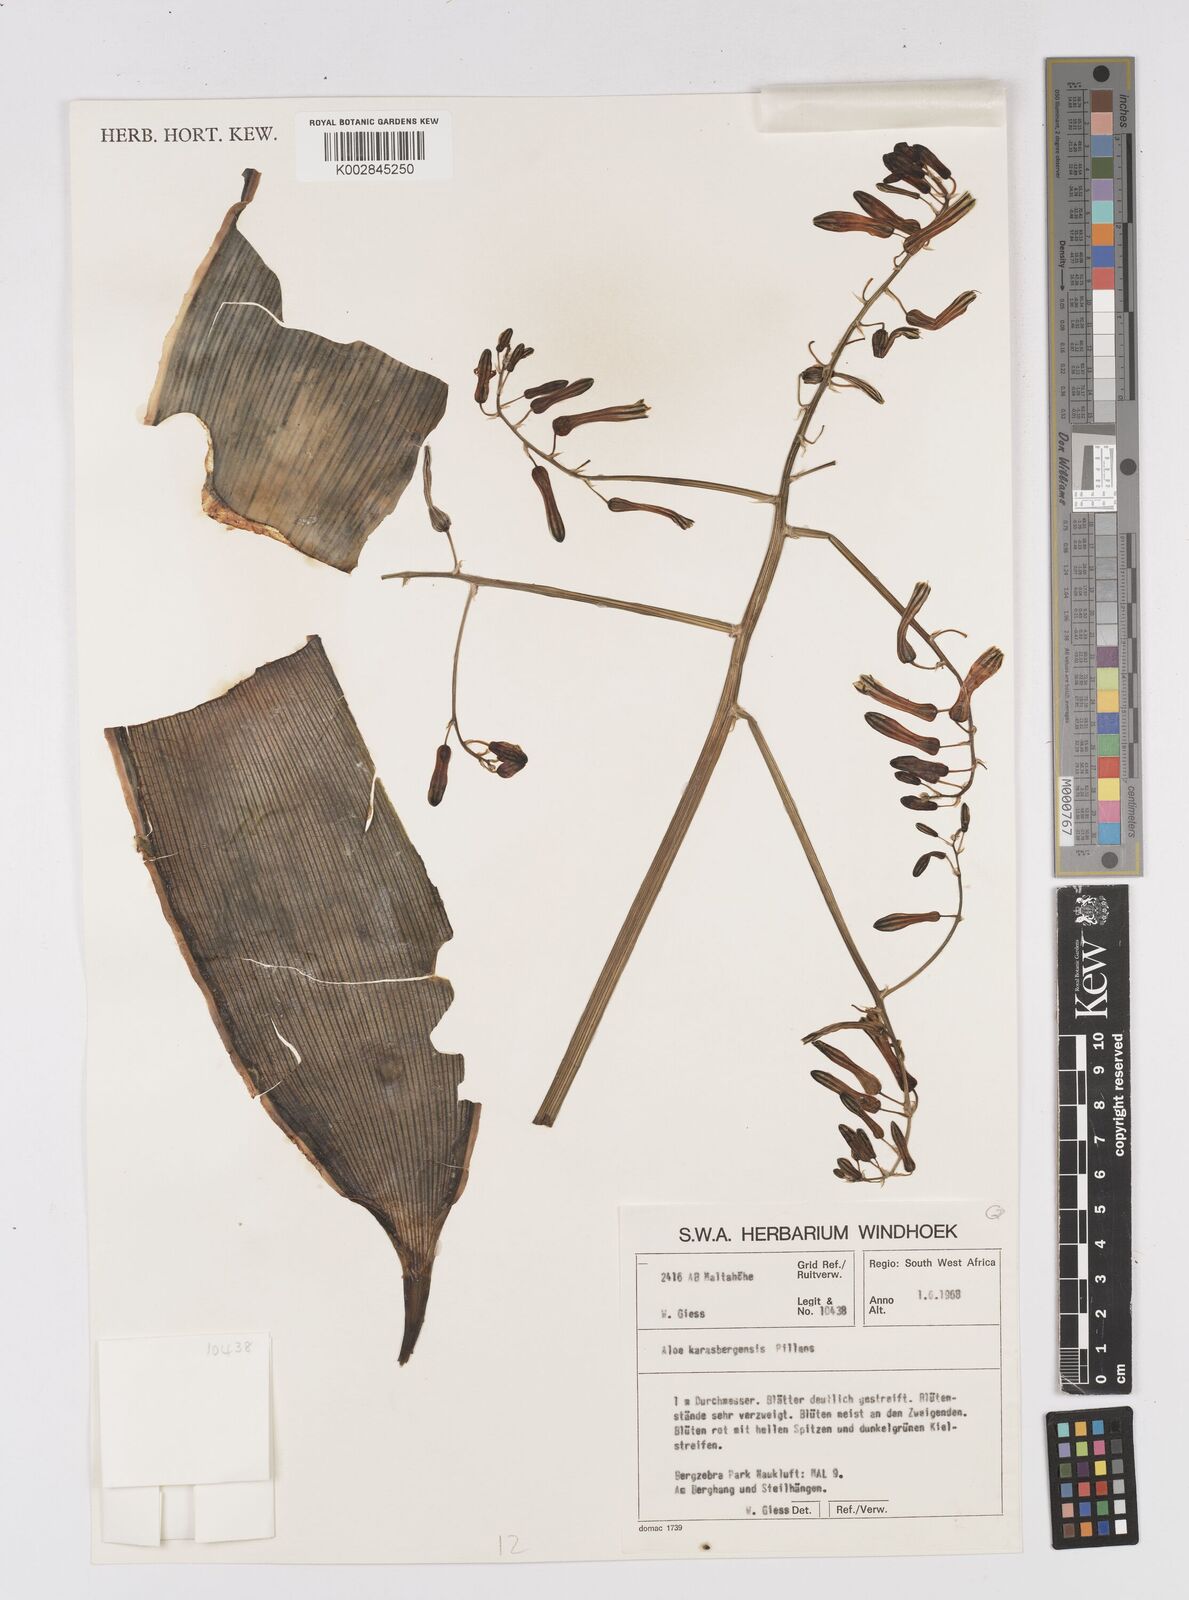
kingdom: Plantae
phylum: Tracheophyta
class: Liliopsida
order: Asparagales
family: Asphodelaceae
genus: Aloe
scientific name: Aloe karasbergensis
